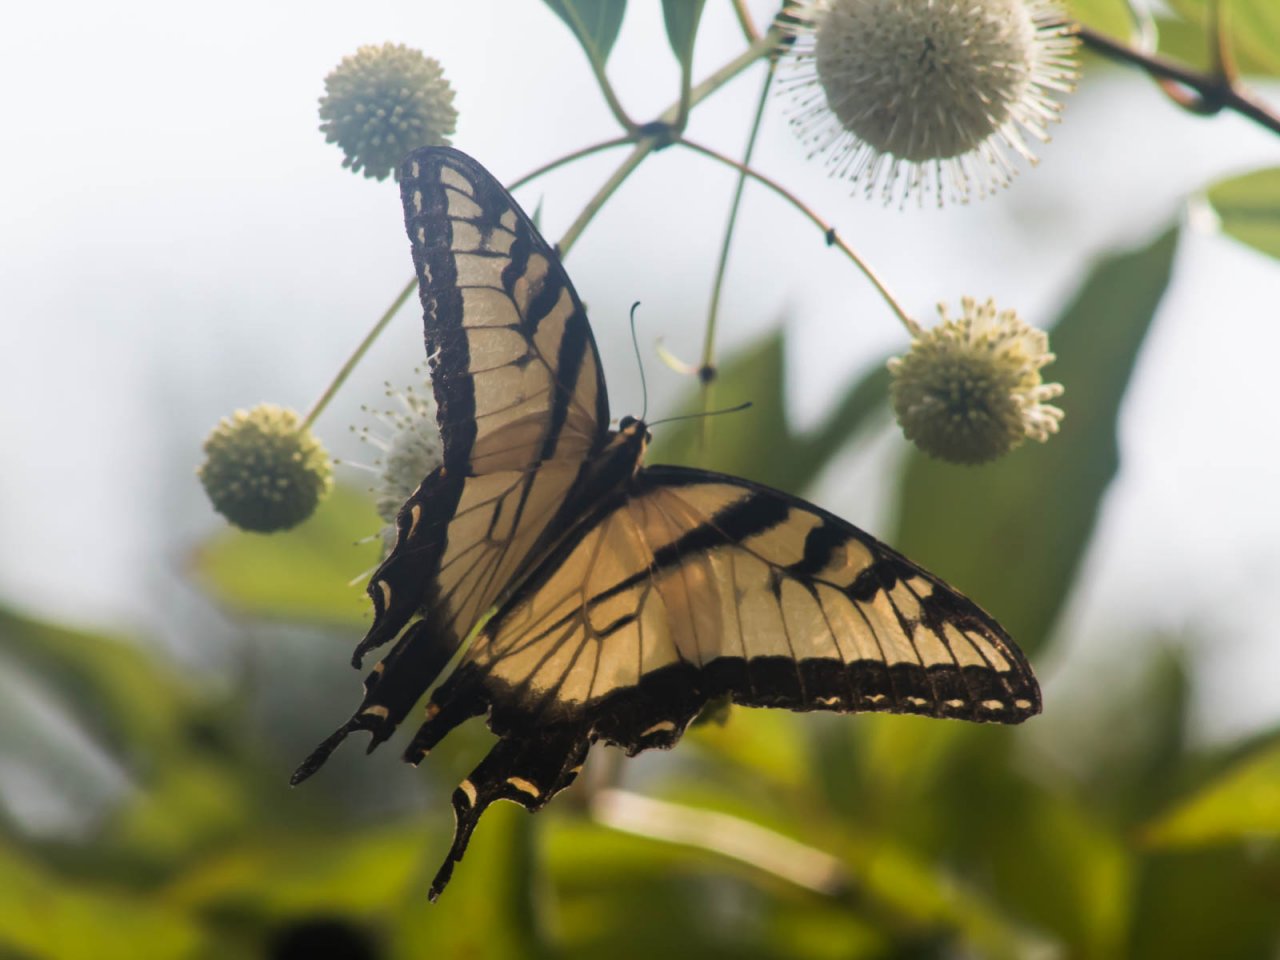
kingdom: Animalia
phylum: Arthropoda
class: Insecta
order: Lepidoptera
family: Papilionidae
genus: Pterourus
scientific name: Pterourus glaucus
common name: Eastern Tiger Swallowtail
